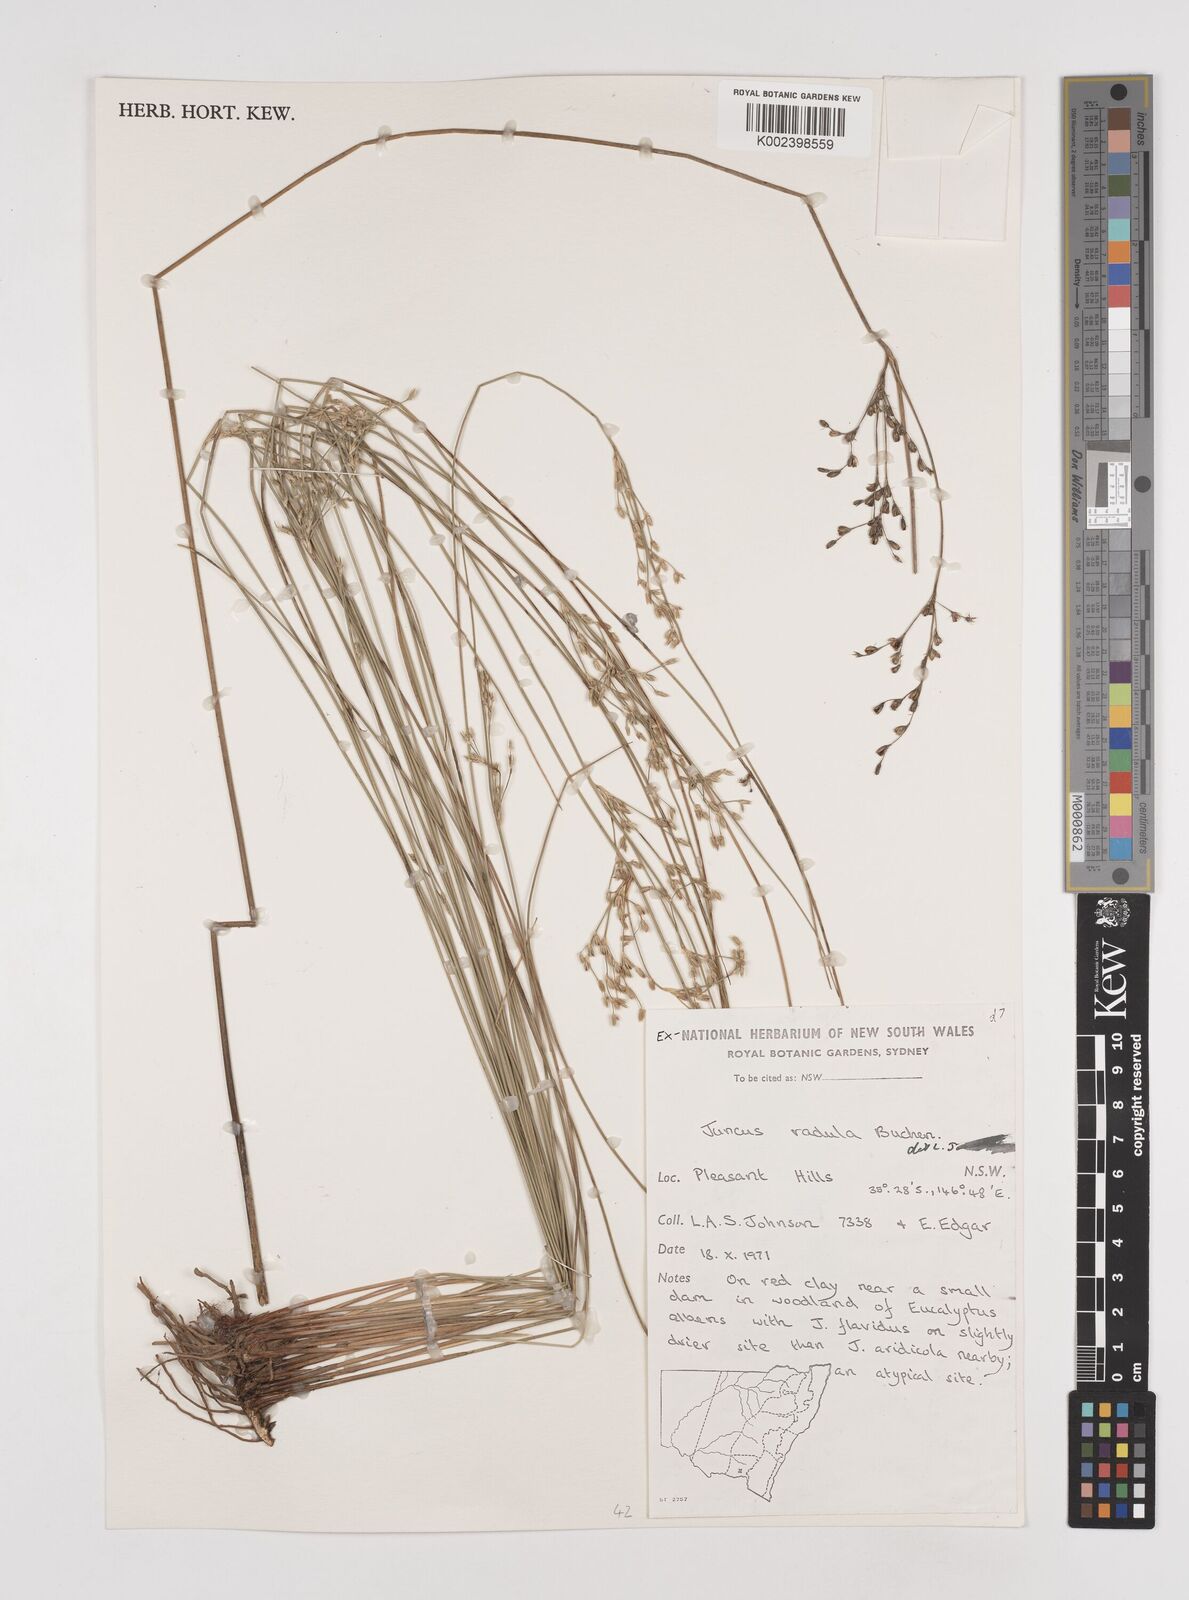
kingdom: Plantae
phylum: Tracheophyta
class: Liliopsida
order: Poales
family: Juncaceae
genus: Juncus
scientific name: Juncus radula
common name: Hoary rush
